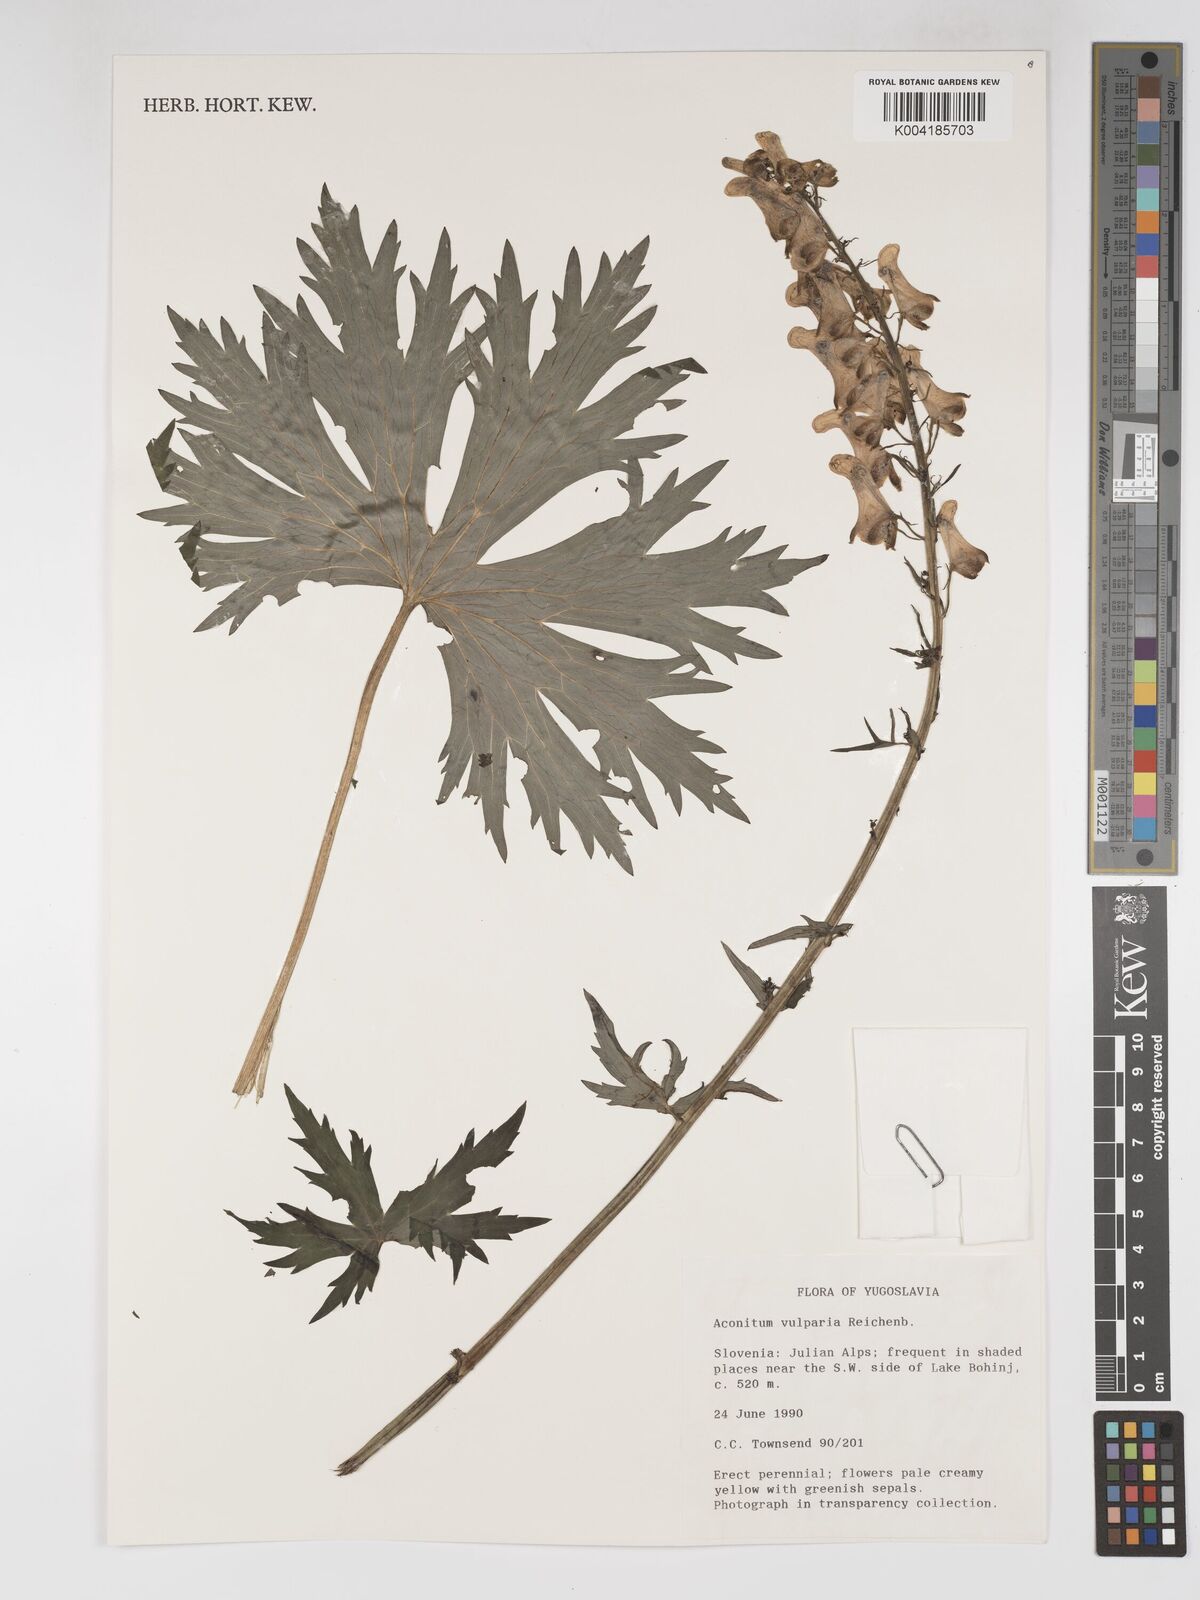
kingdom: Plantae
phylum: Tracheophyta
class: Magnoliopsida
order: Ranunculales
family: Ranunculaceae
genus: Aconitum
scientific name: Aconitum lycoctonum
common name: Wolf's-bane
